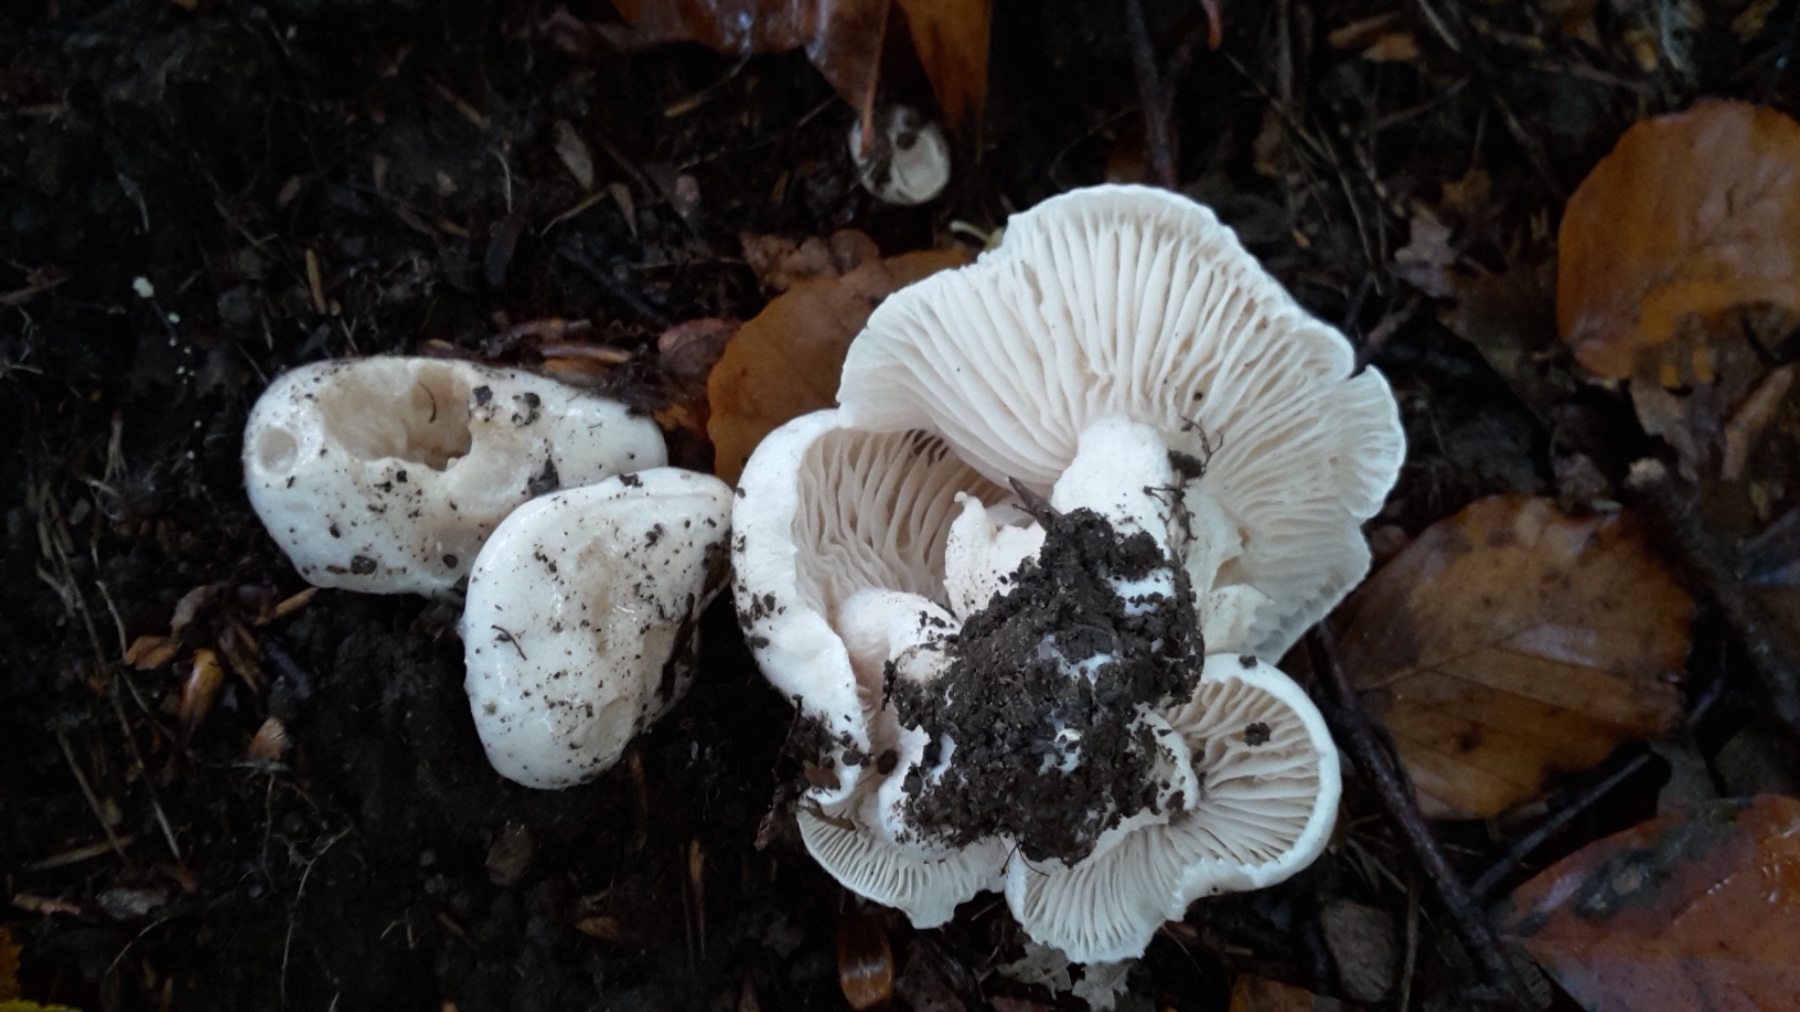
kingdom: Fungi
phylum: Basidiomycota
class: Agaricomycetes
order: Agaricales
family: Hygrophoraceae
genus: Hygrophorus
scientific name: Hygrophorus penarius
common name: spiselig sneglehat
